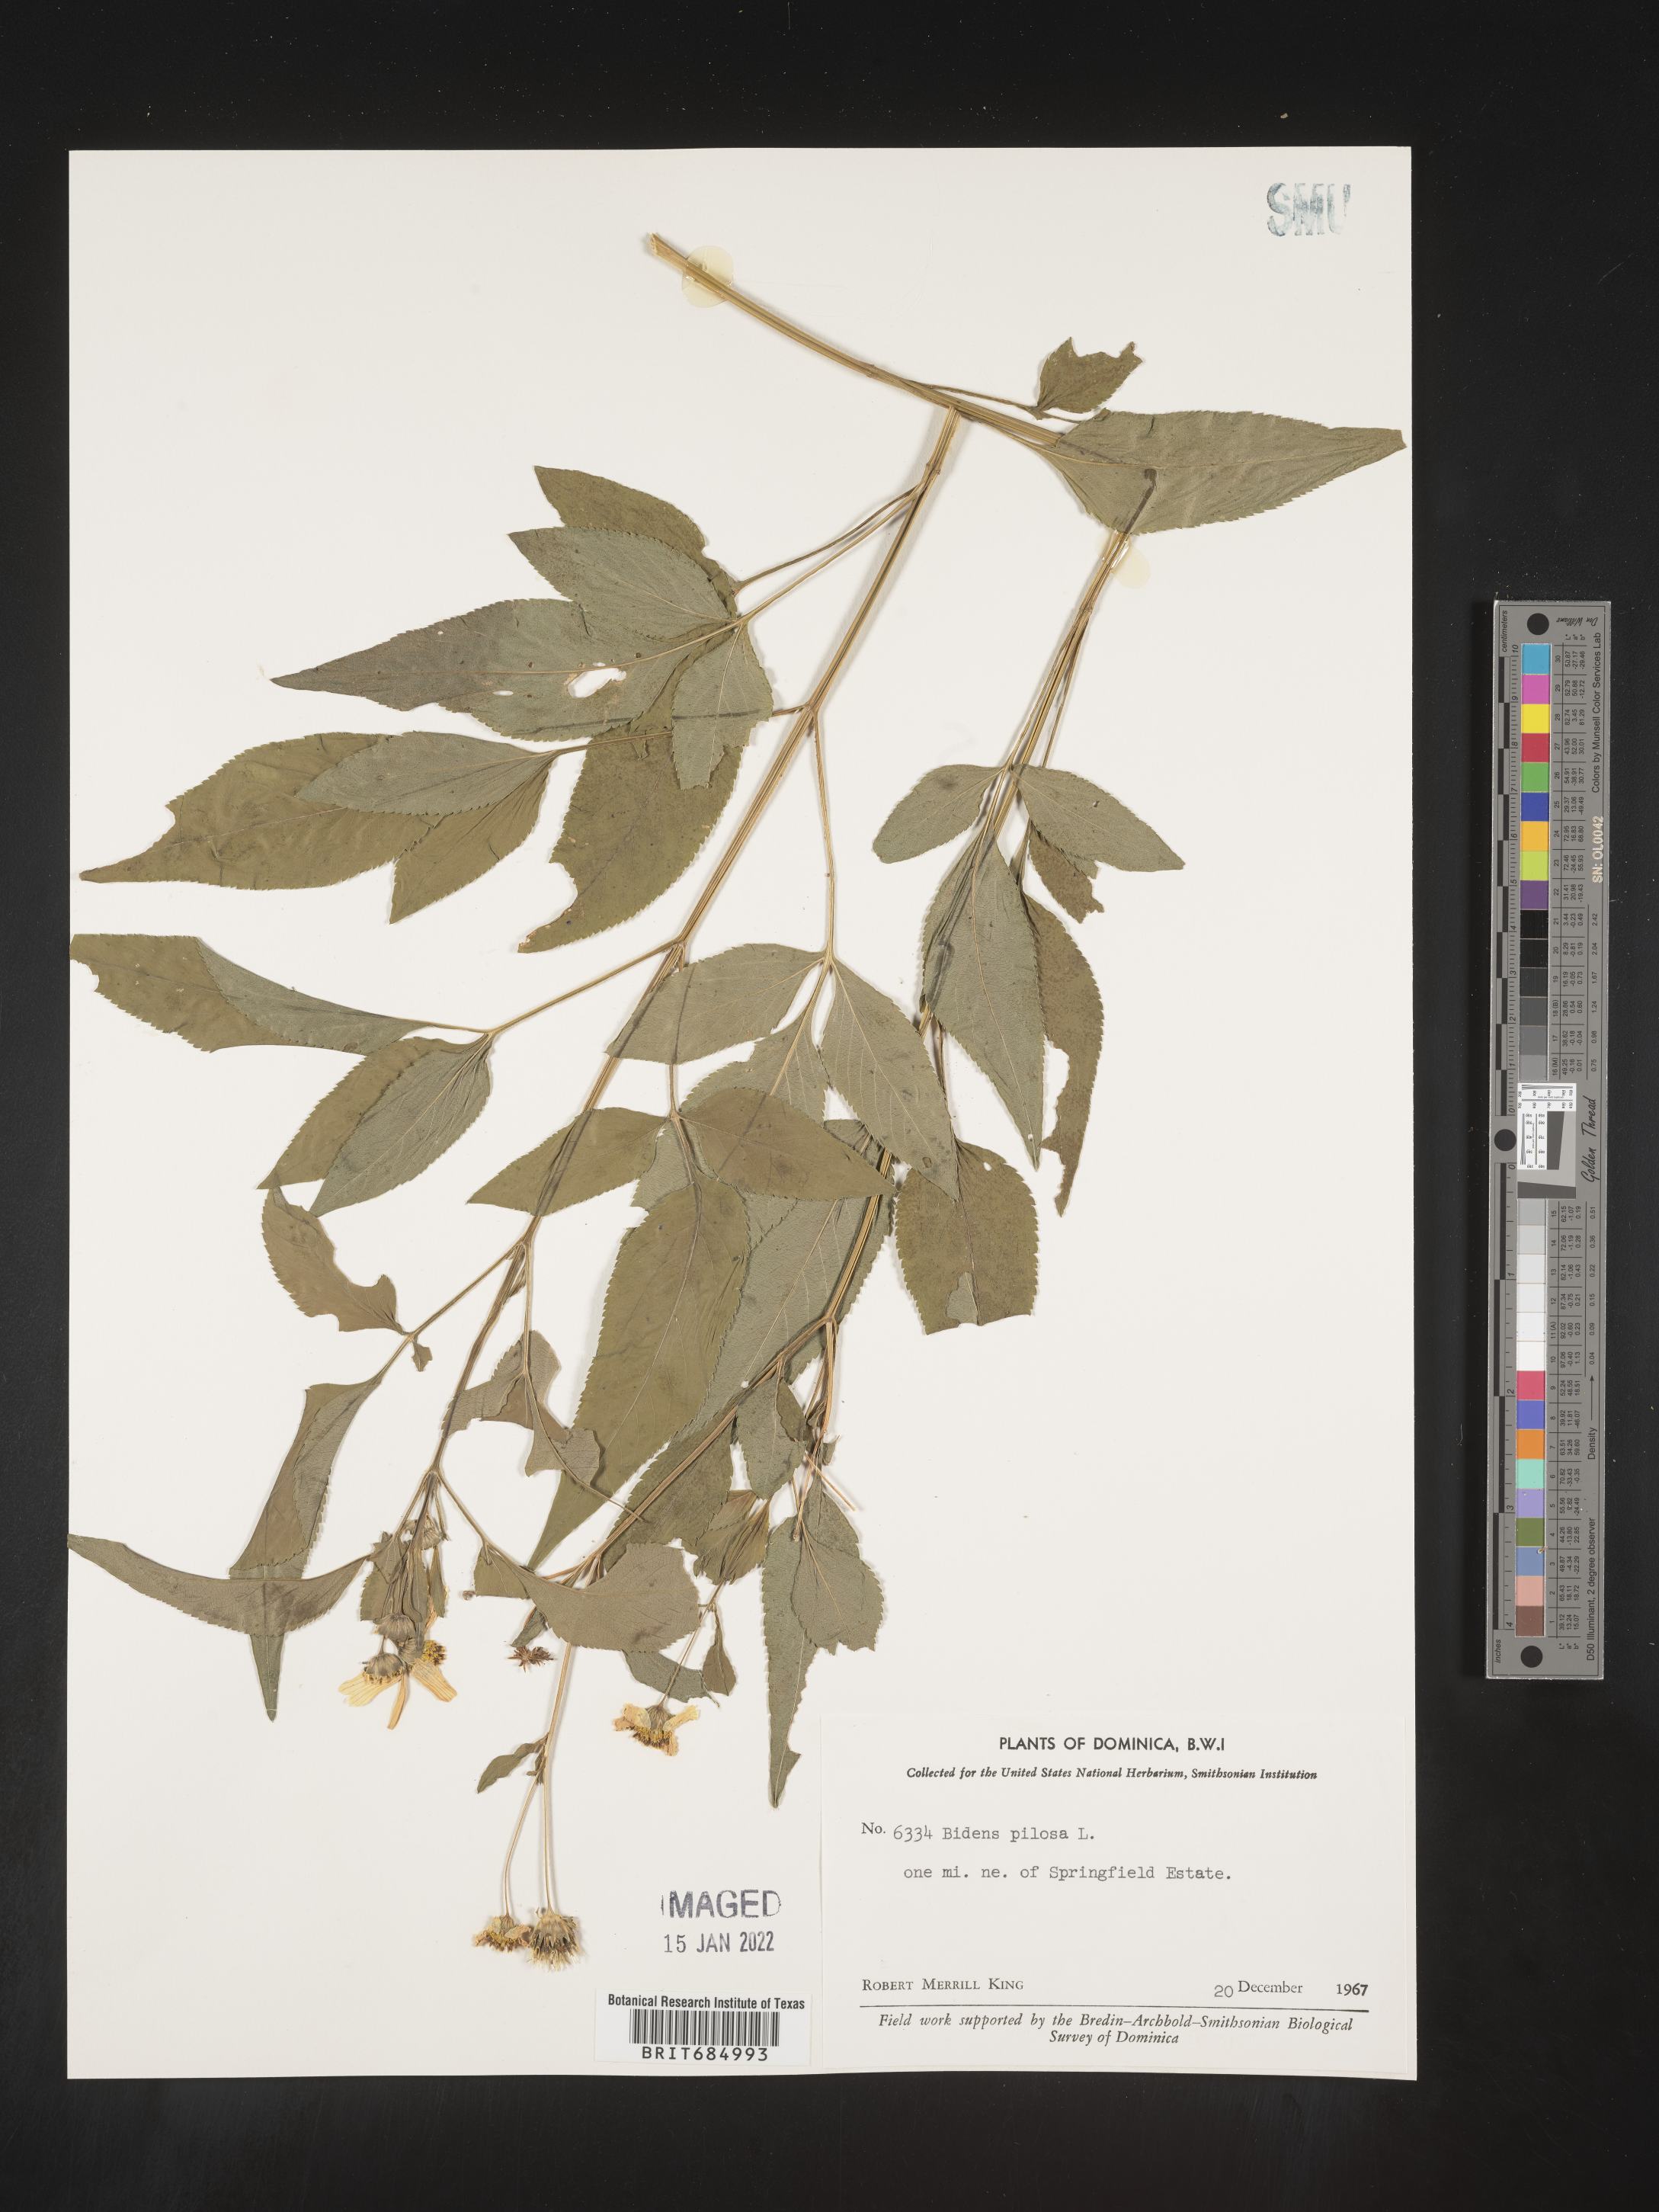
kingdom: Plantae
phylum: Tracheophyta
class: Magnoliopsida
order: Asterales
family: Asteraceae
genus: Bidens
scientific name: Bidens
